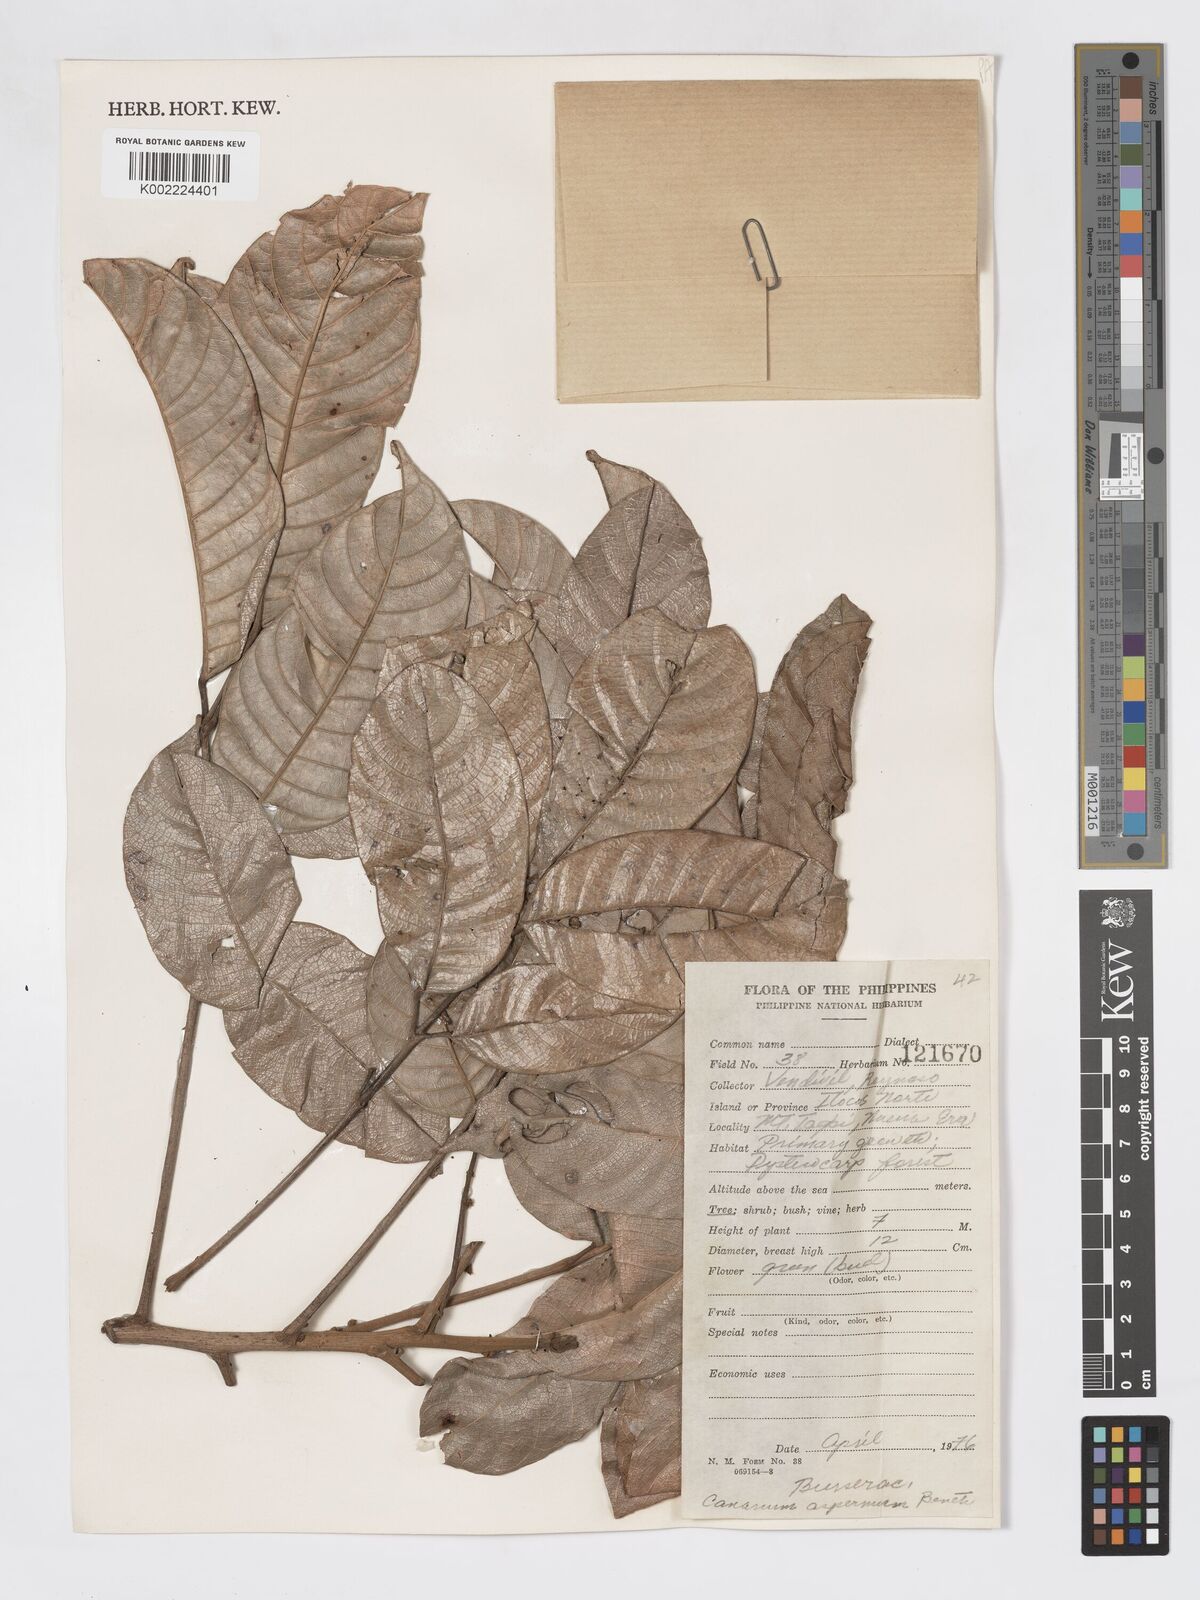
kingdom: Plantae
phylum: Tracheophyta
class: Magnoliopsida
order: Sapindales
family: Burseraceae
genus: Canarium
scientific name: Canarium asperum
